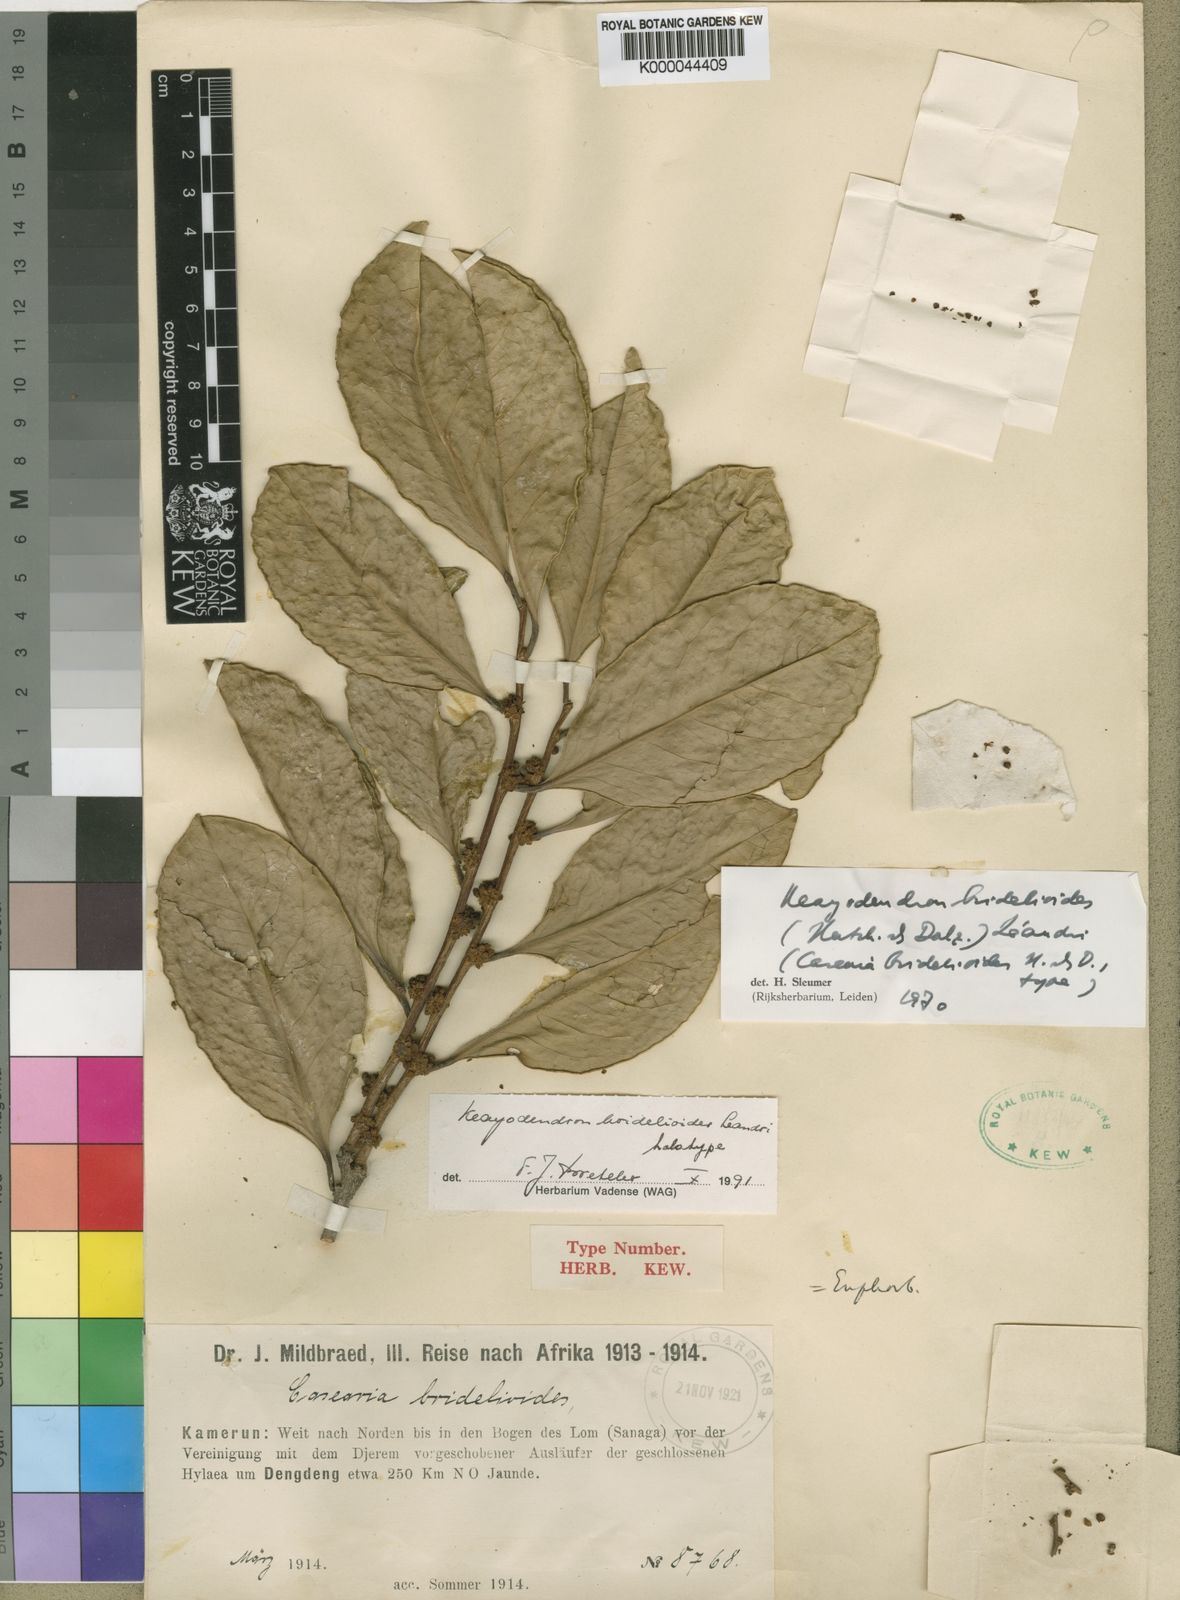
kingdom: Plantae
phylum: Tracheophyta
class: Magnoliopsida
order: Malpighiales
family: Phyllanthaceae
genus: Keayodendron
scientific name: Keayodendron bridelioides
